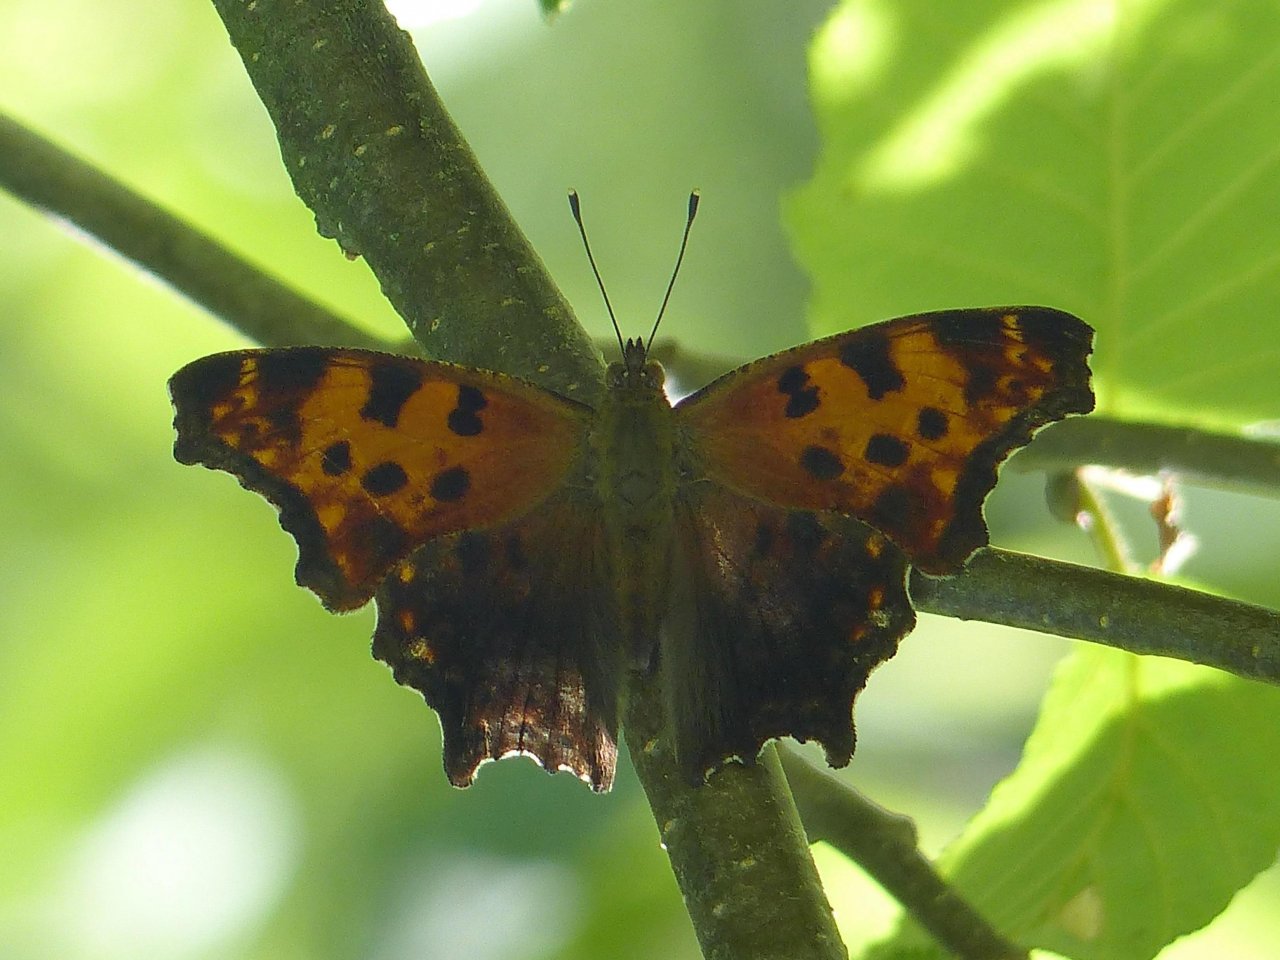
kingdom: Animalia
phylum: Arthropoda
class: Insecta
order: Lepidoptera
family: Nymphalidae
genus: Polygonia
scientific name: Polygonia comma
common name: Eastern Comma
